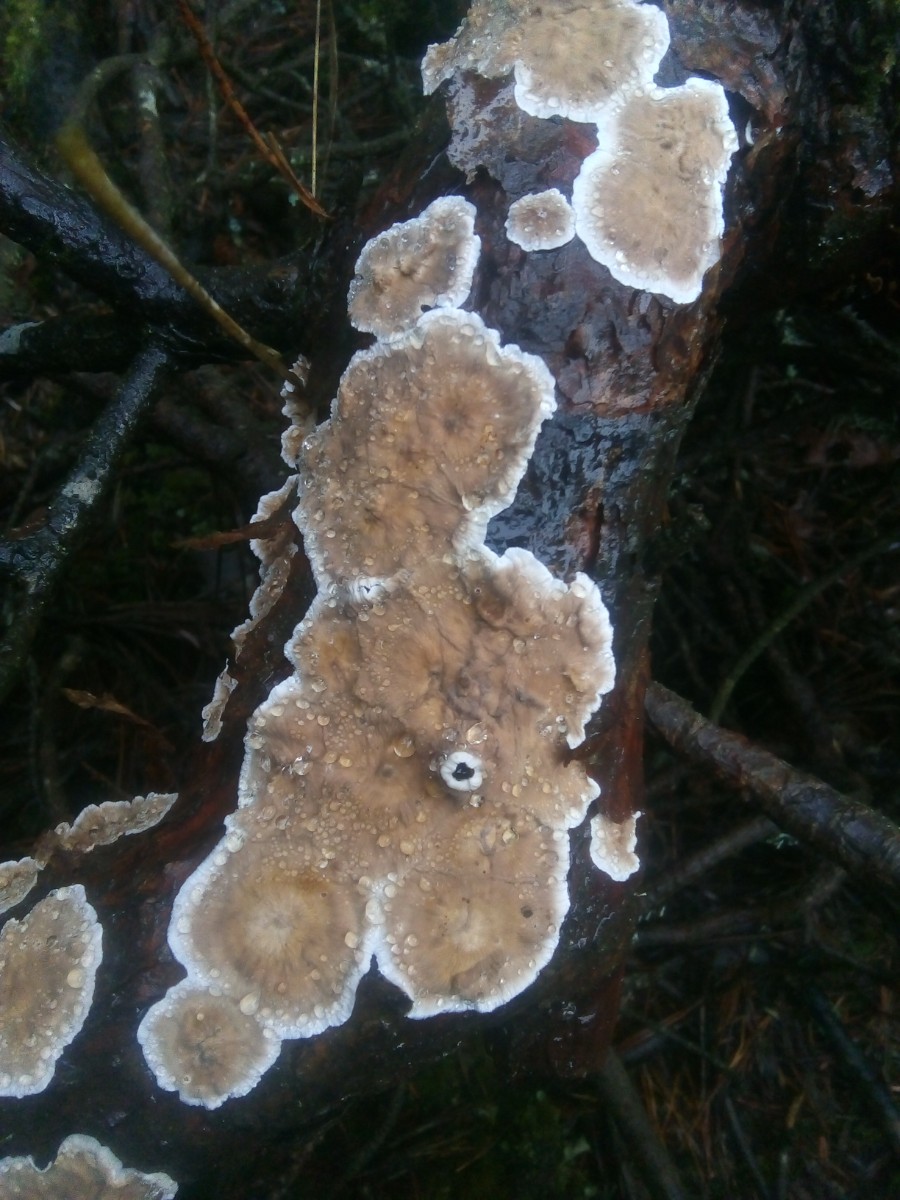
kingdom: Fungi
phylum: Basidiomycota
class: Agaricomycetes
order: Russulales
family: Stereaceae
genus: Stereum
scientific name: Stereum sanguinolentum
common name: blødende lædersvamp
